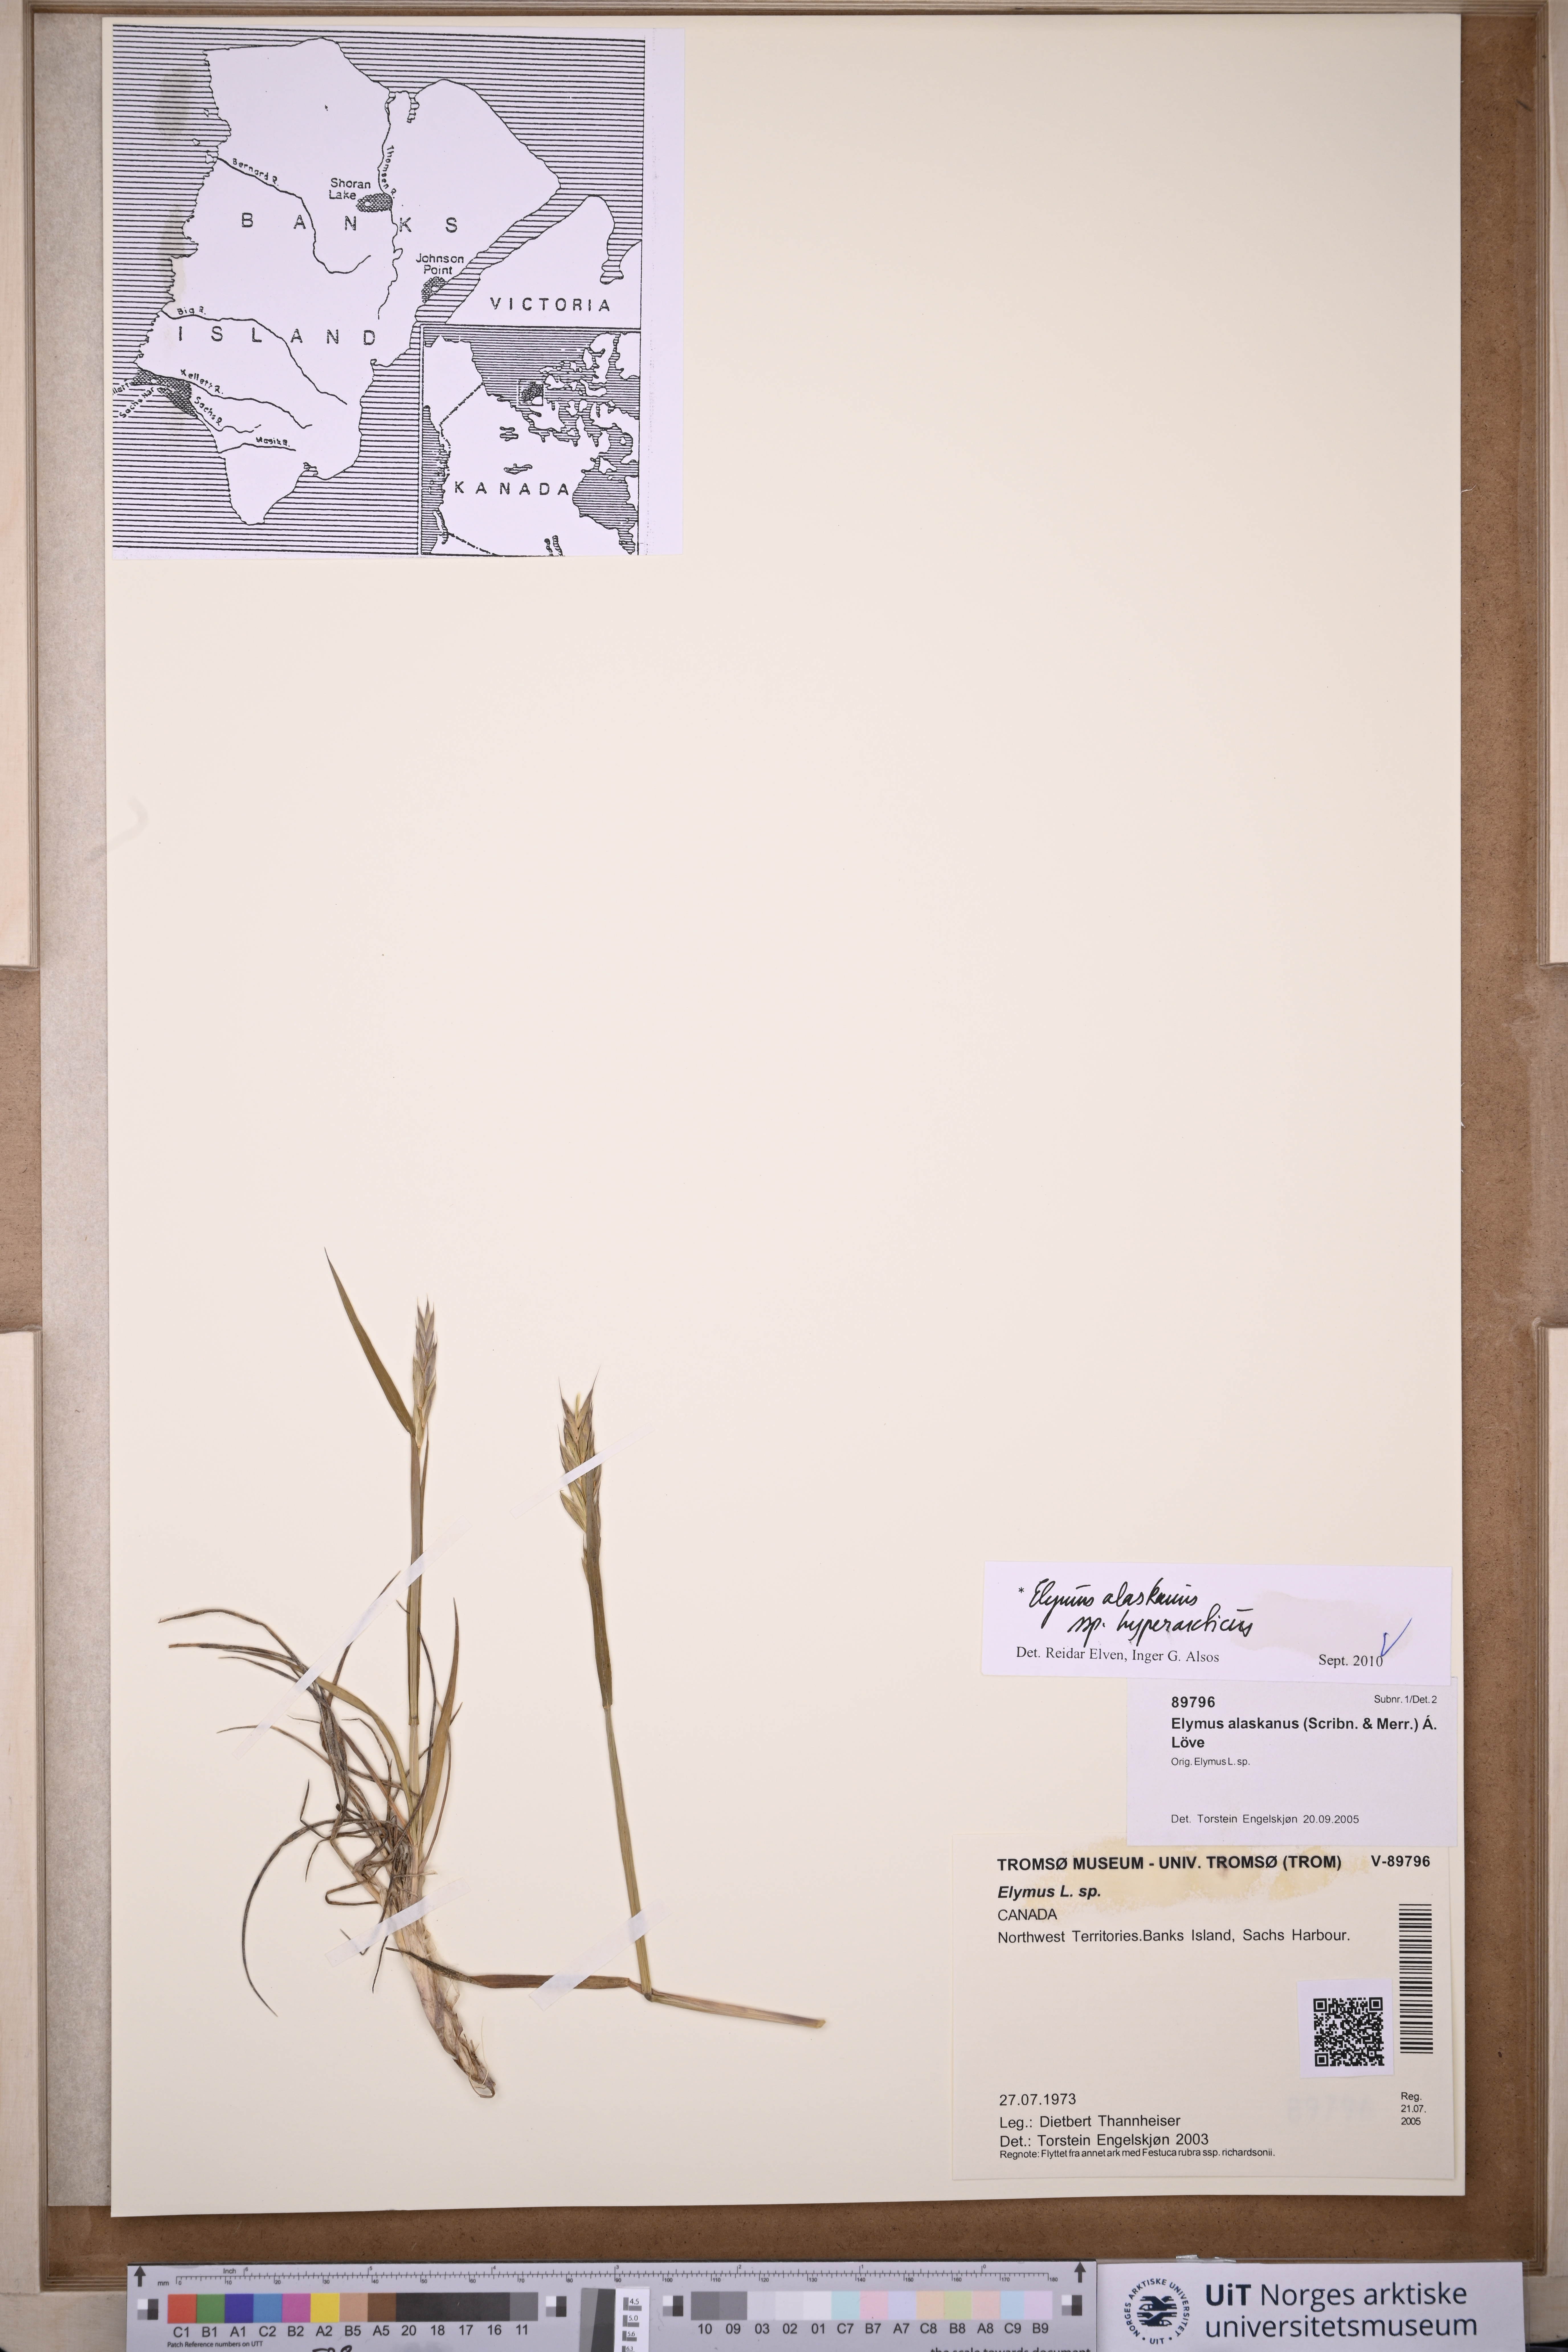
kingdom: Plantae
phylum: Tracheophyta
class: Liliopsida
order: Poales
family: Poaceae
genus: Elymus
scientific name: Elymus sajanensis
